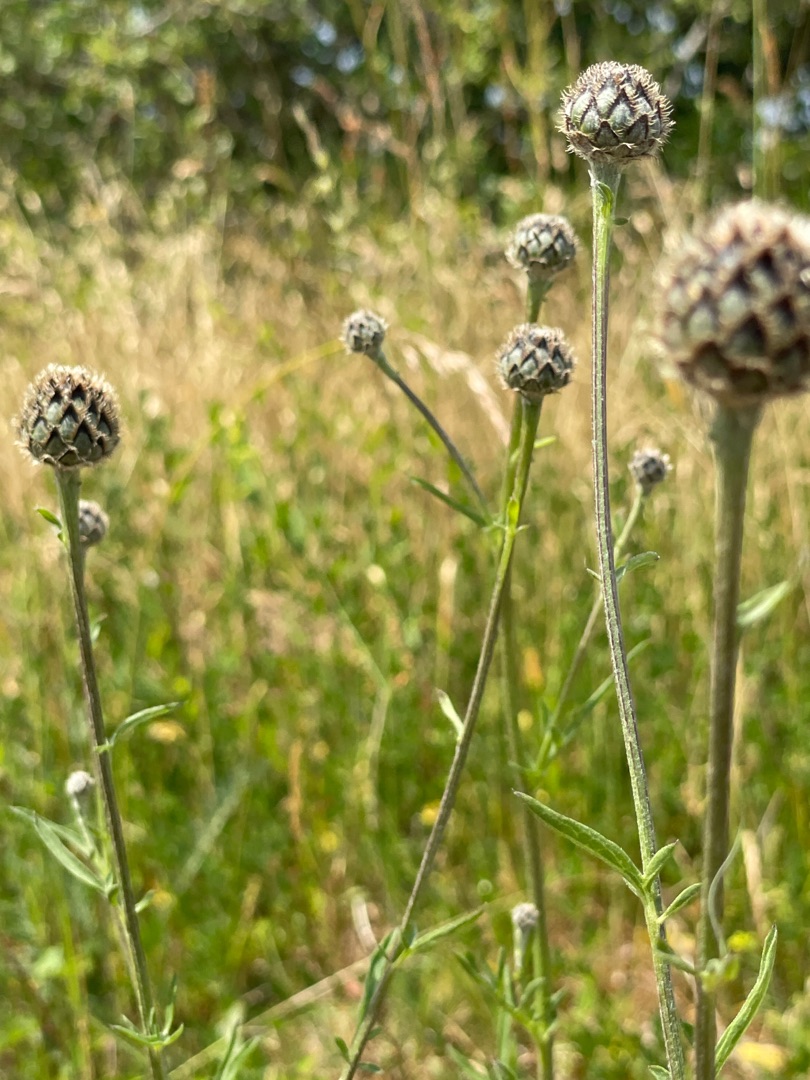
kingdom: Plantae
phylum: Tracheophyta
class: Magnoliopsida
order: Asterales
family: Asteraceae
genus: Centaurea
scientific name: Centaurea scabiosa
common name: Stor knopurt
